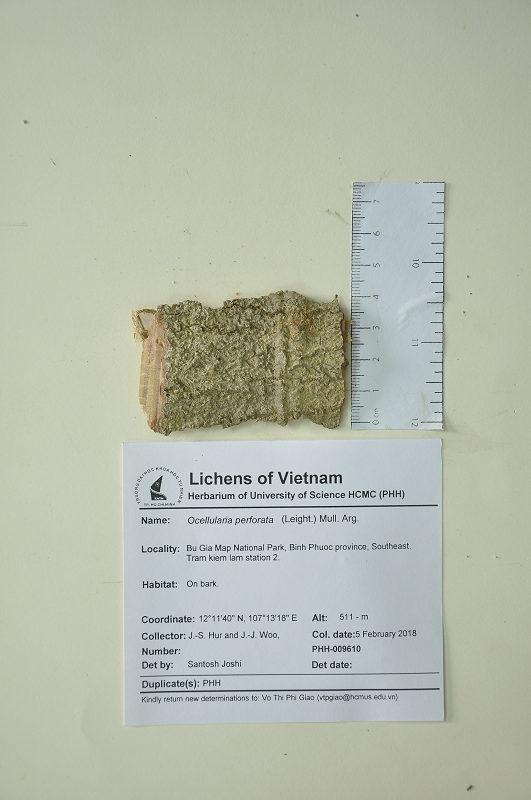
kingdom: Fungi
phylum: Ascomycota
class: Lecanoromycetes
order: Ostropales
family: Graphidaceae
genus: Ocellularia
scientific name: Ocellularia perforata
